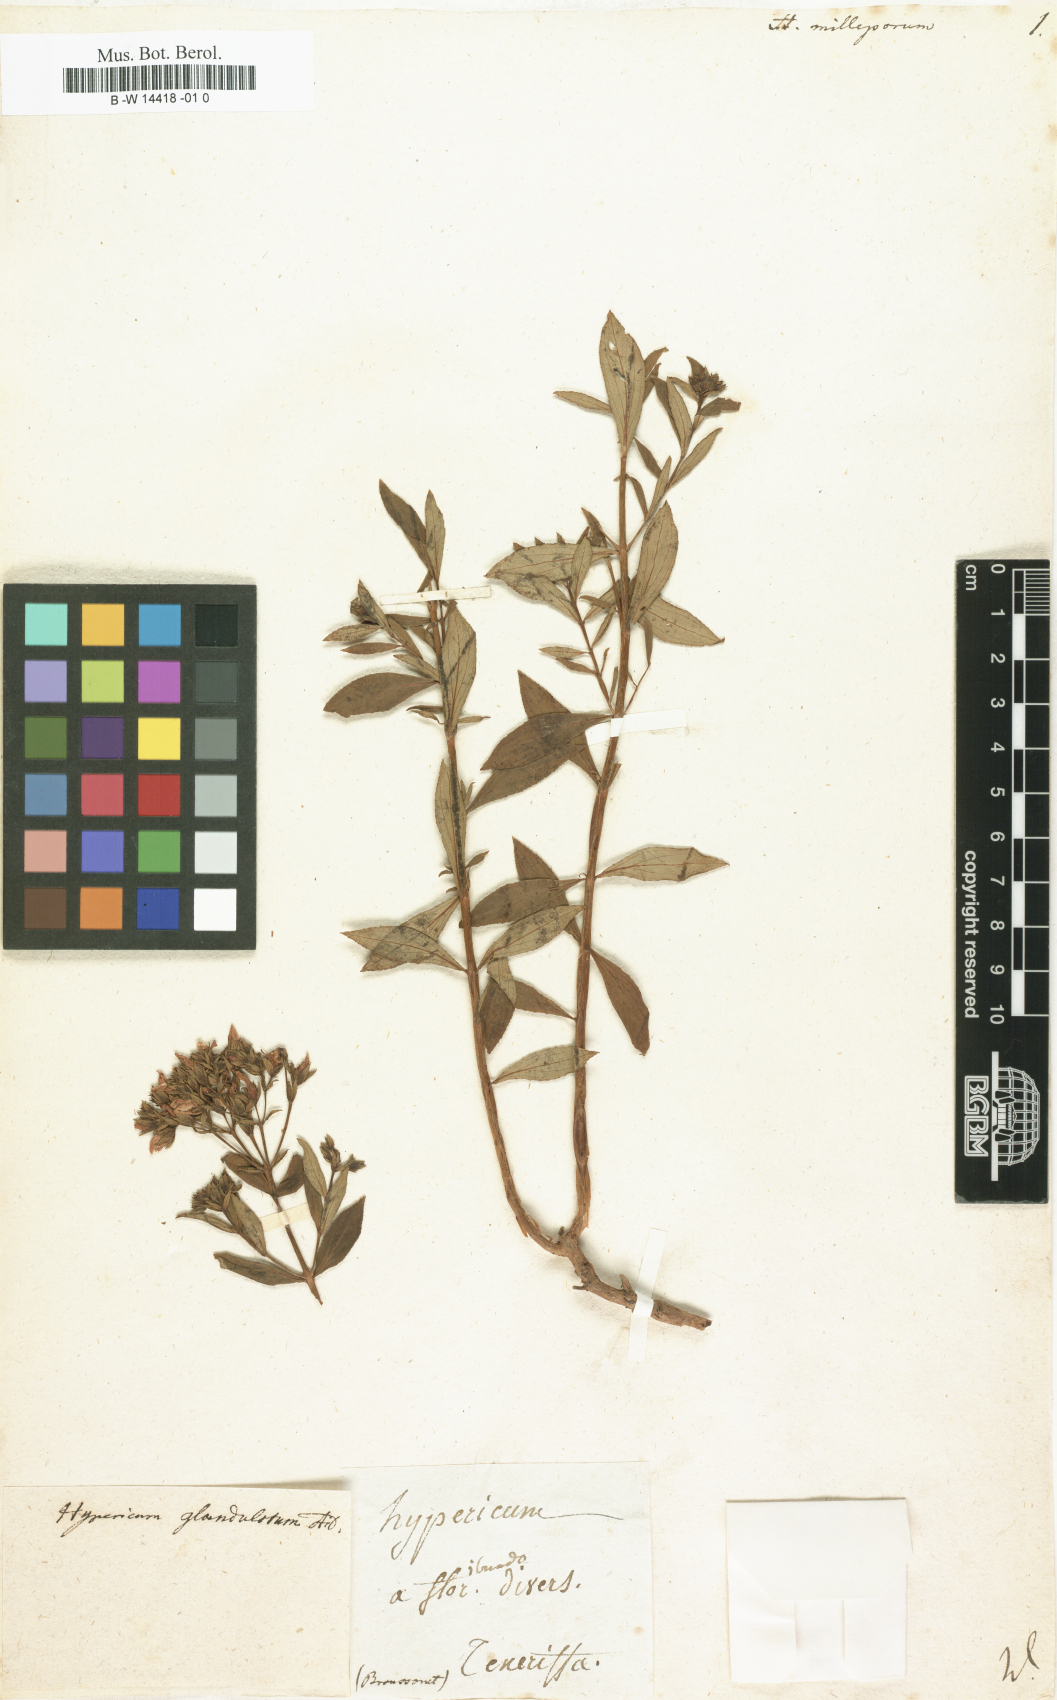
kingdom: Plantae
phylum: Tracheophyta
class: Magnoliopsida
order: Malpighiales
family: Hypericaceae
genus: Hypericum
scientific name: Hypericum glandulosum
